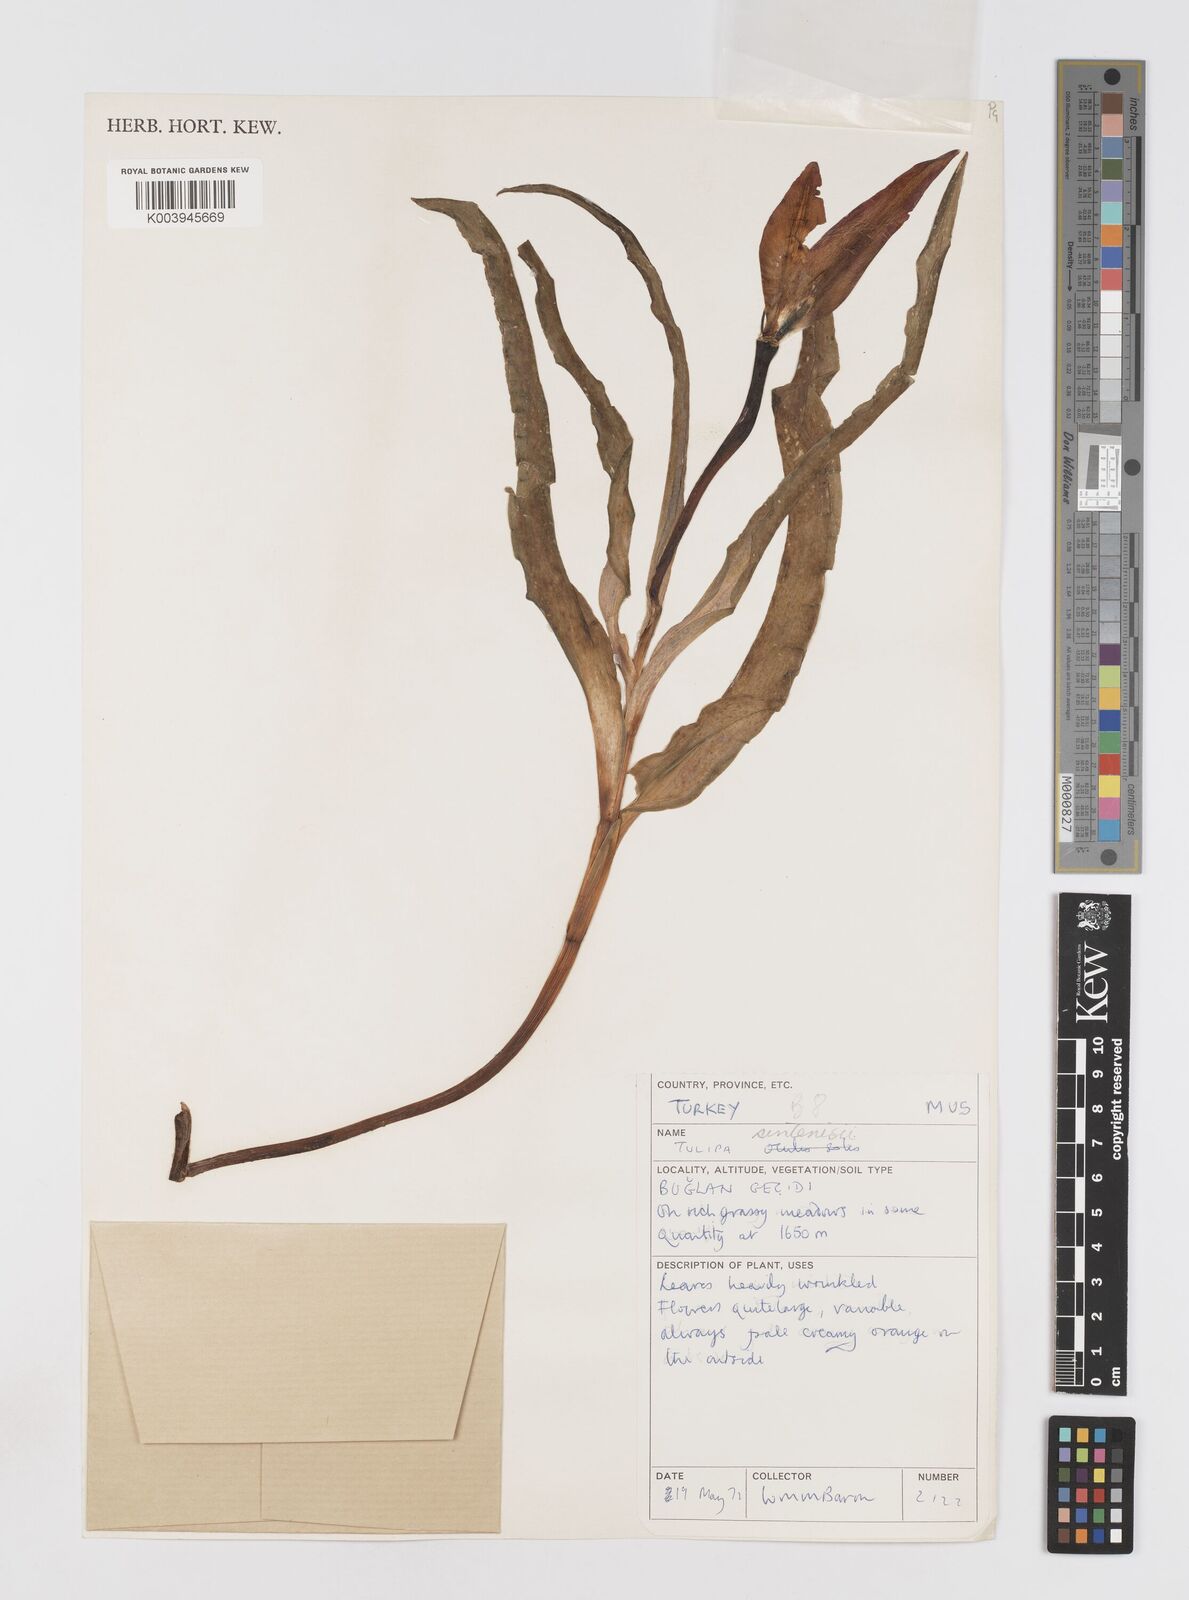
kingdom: Plantae
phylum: Tracheophyta
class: Liliopsida
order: Liliales
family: Liliaceae
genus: Tulipa
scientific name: Tulipa aleppensis
